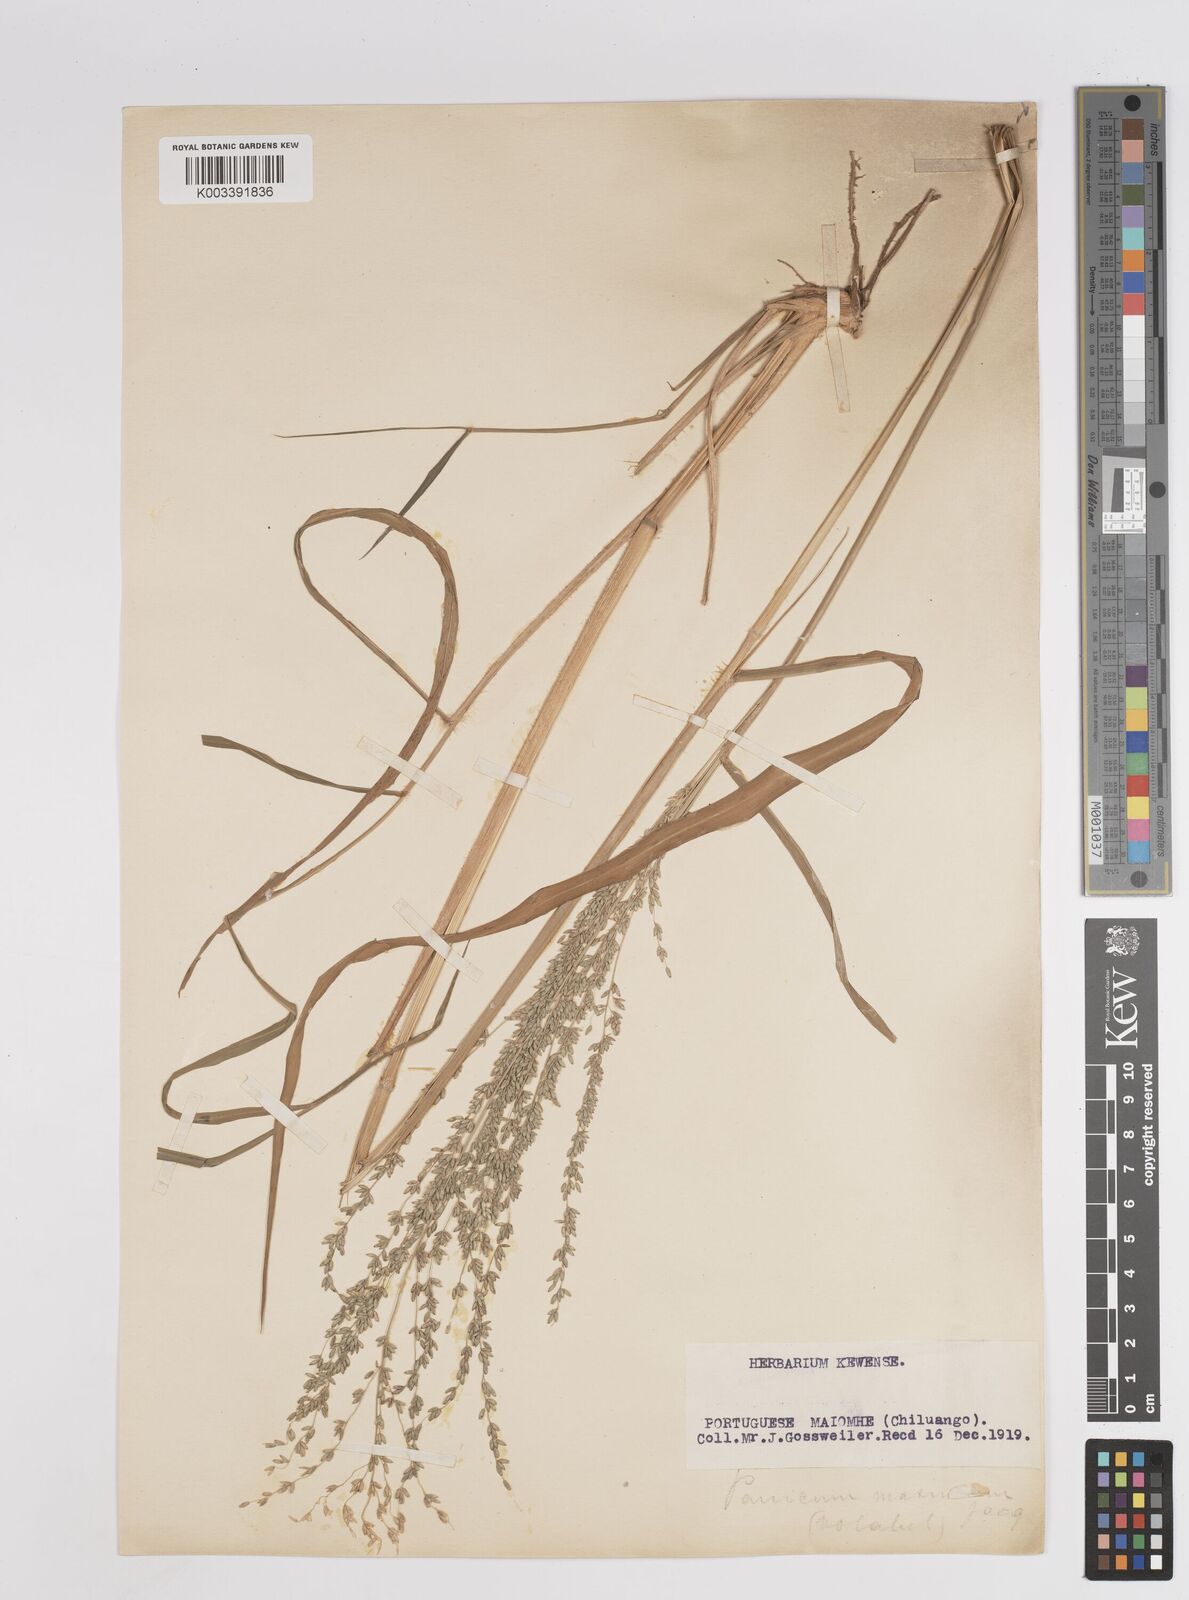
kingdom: Plantae
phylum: Tracheophyta
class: Liliopsida
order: Poales
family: Poaceae
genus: Megathyrsus
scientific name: Megathyrsus maximus
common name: Guineagrass
